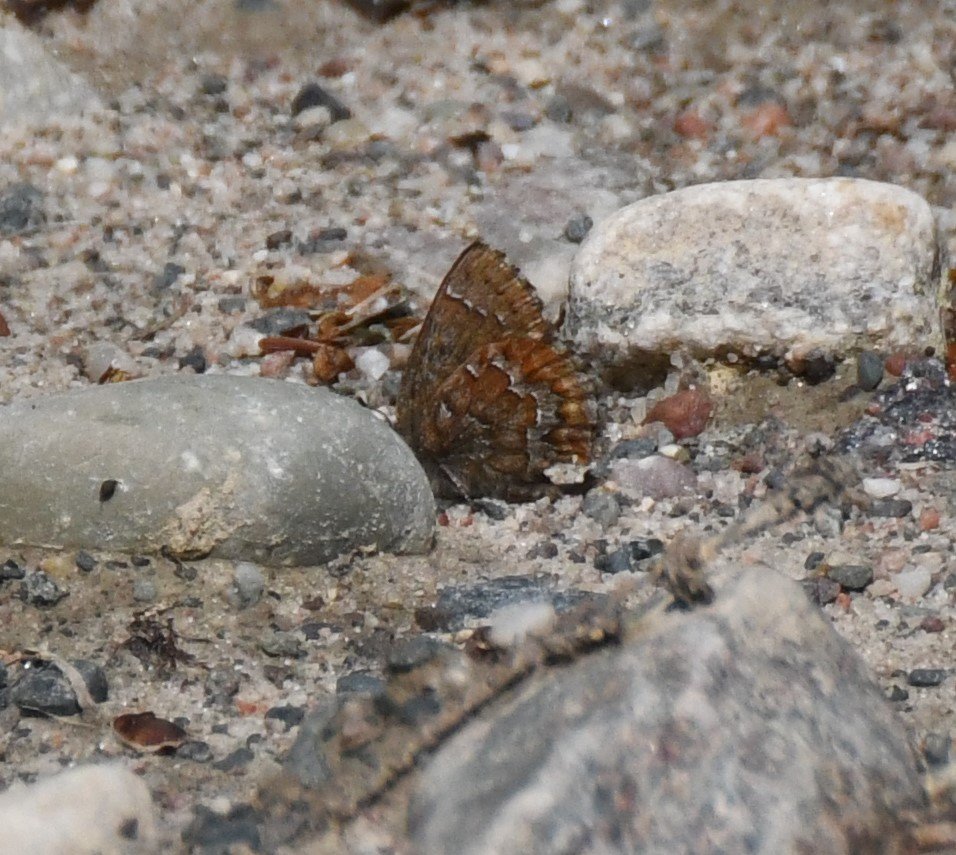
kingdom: Animalia
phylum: Arthropoda
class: Insecta
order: Lepidoptera
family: Lycaenidae
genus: Incisalia
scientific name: Incisalia niphon
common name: Eastern Pine Elfin
